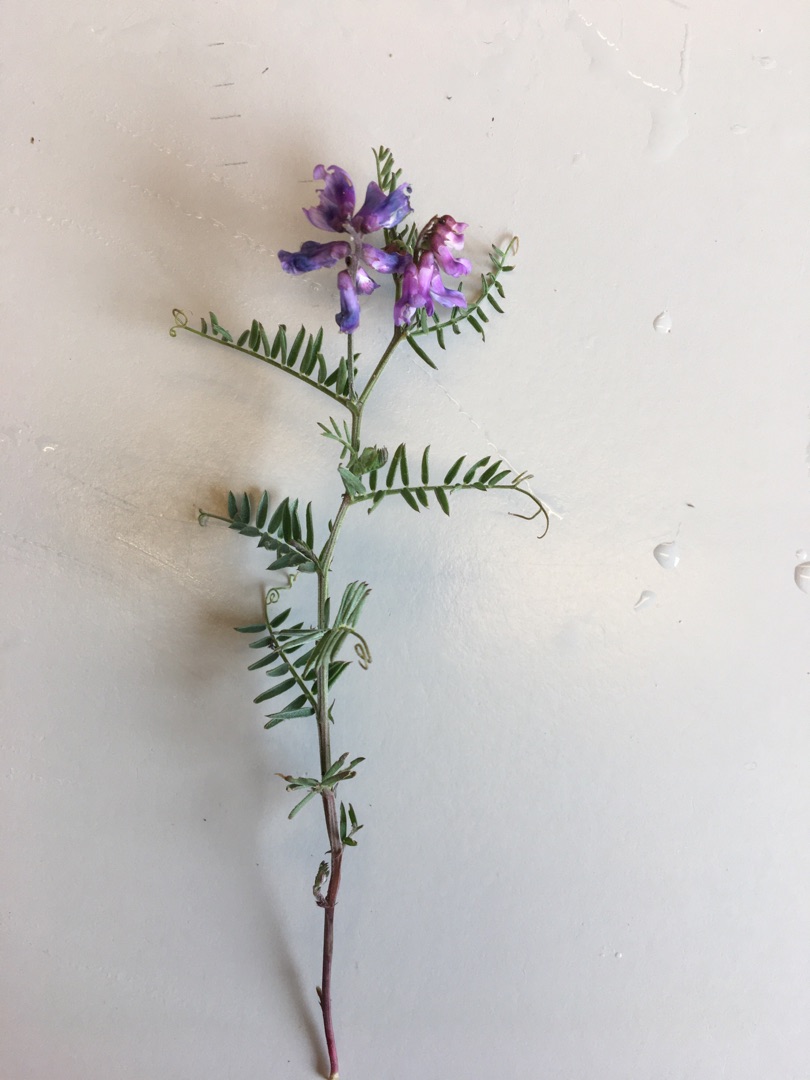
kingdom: Plantae
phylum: Tracheophyta
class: Magnoliopsida
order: Fabales
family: Fabaceae
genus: Vicia
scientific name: Vicia cracca
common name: Muse-vikke
